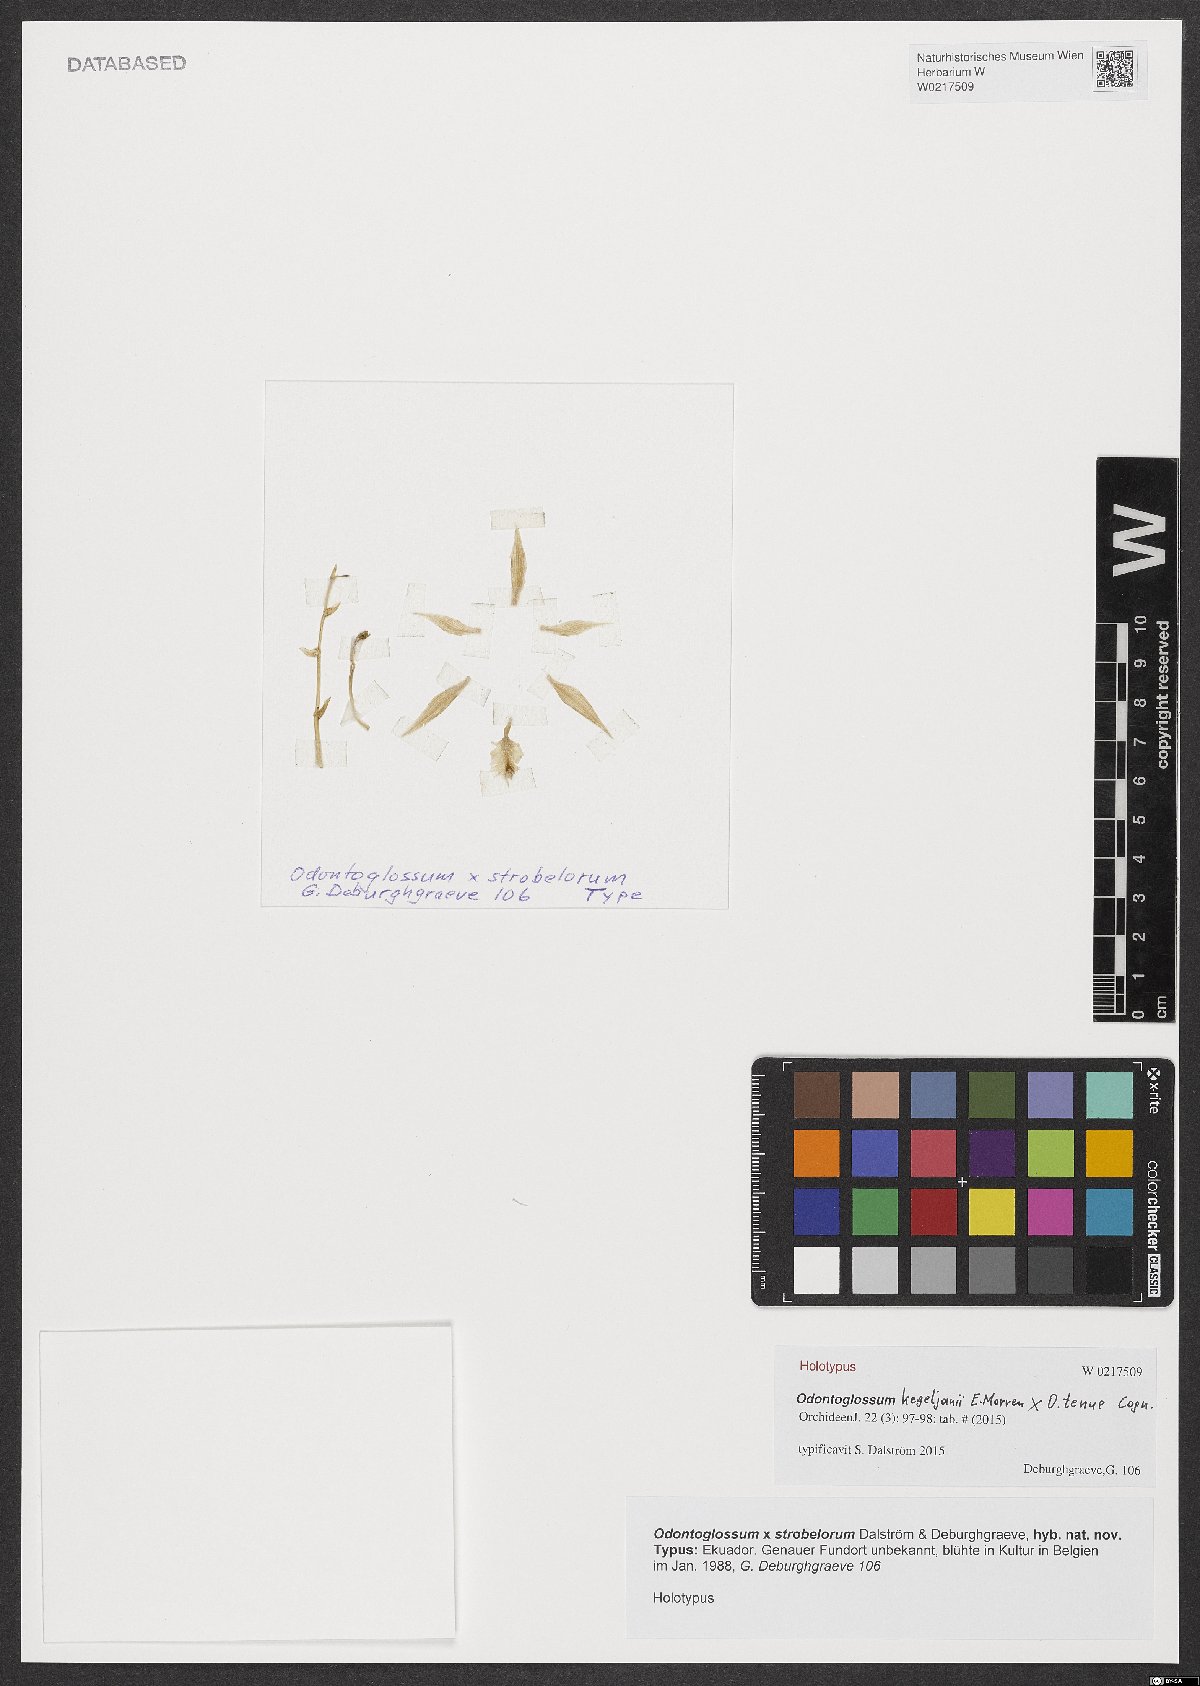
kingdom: Plantae
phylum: Tracheophyta
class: Liliopsida
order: Asparagales
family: Orchidaceae
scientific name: Orchidaceae
